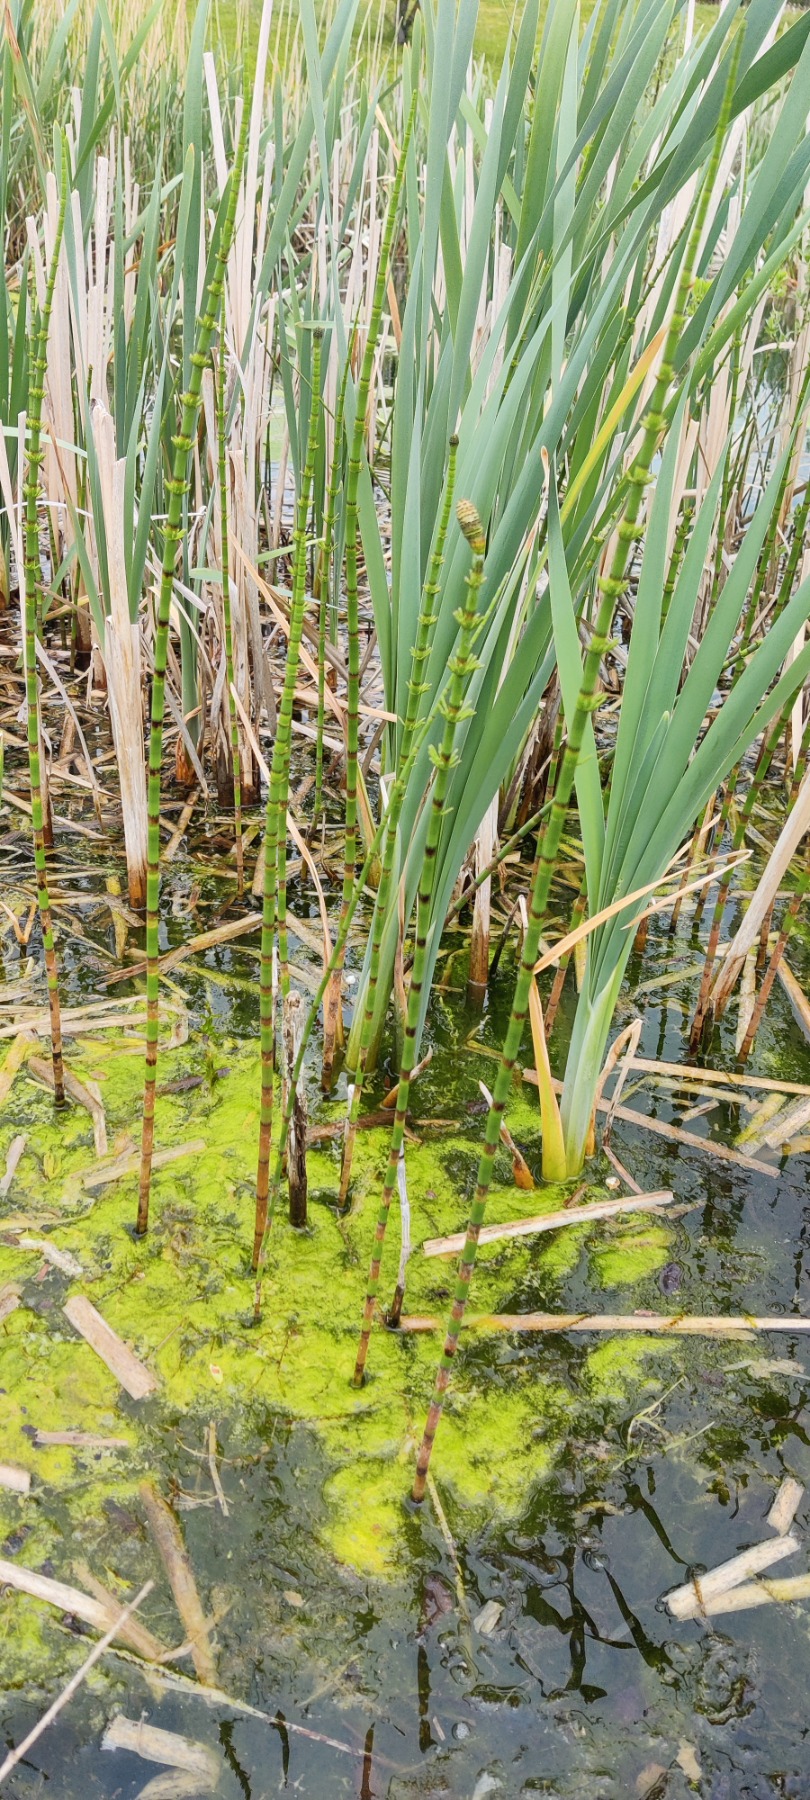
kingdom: Plantae
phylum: Tracheophyta
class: Polypodiopsida
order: Equisetales
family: Equisetaceae
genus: Equisetum
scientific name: Equisetum fluviatile
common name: Dynd-padderok
